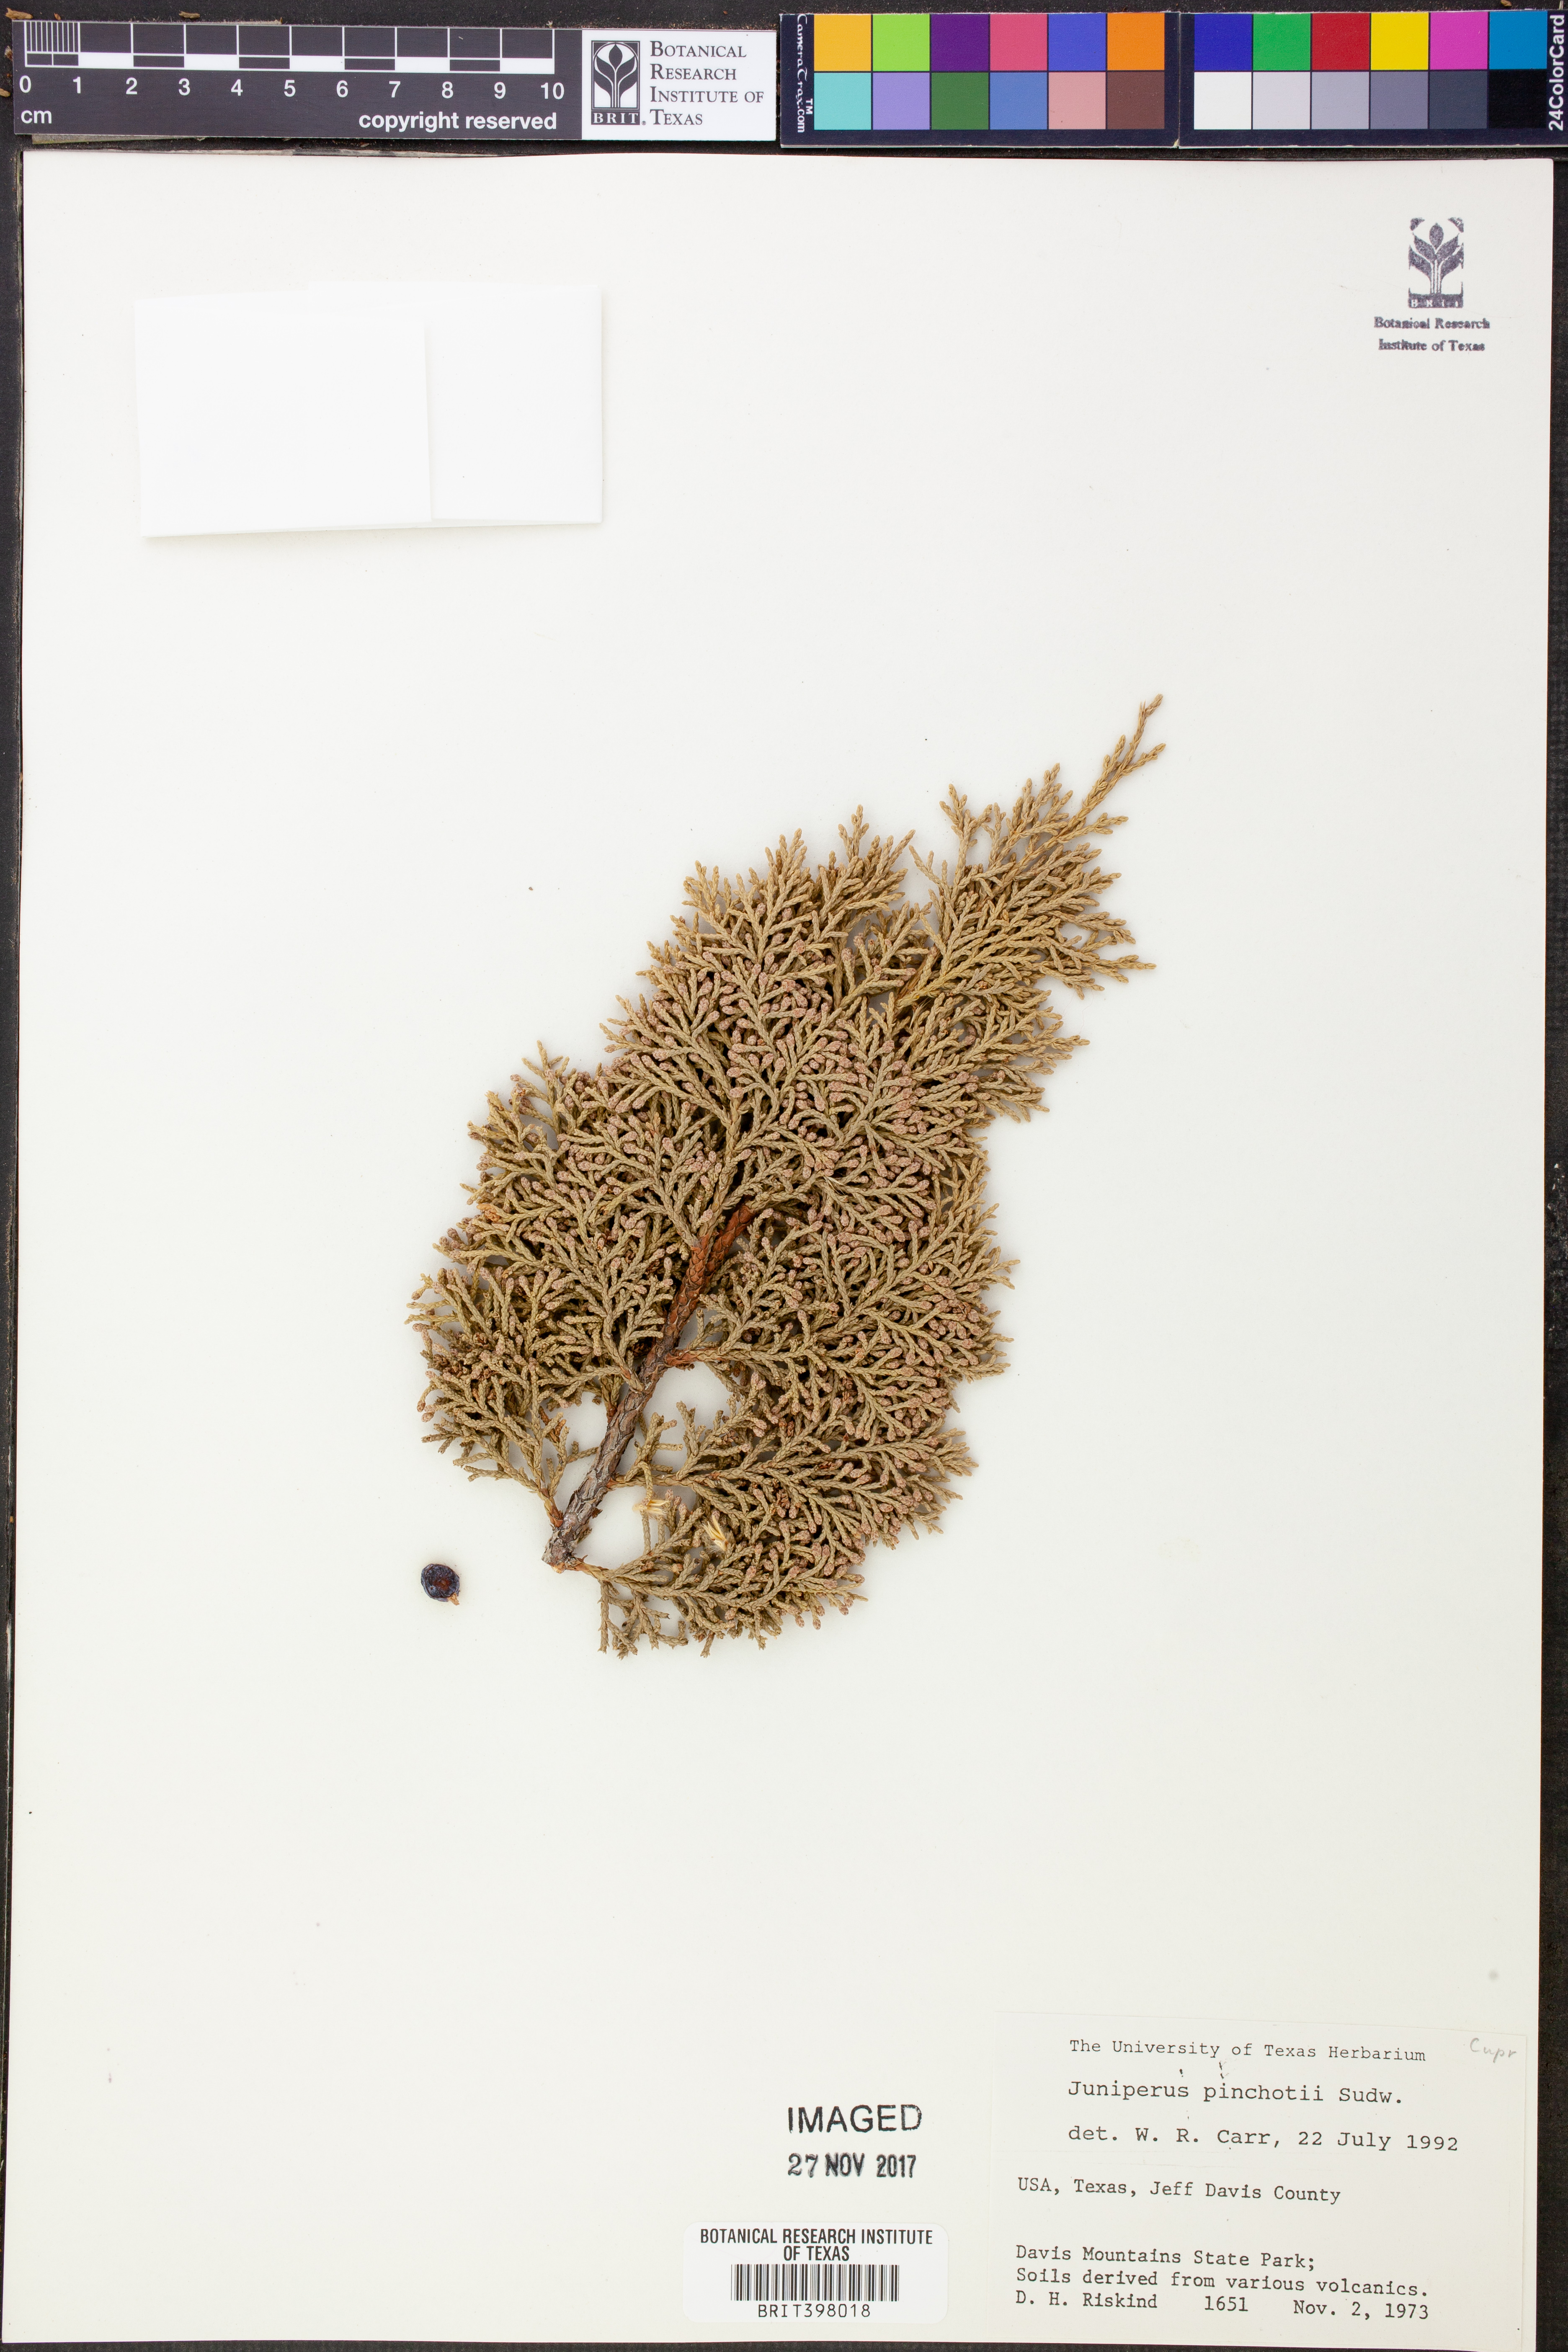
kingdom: Plantae
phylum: Tracheophyta
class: Pinopsida
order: Pinales
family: Cupressaceae
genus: Juniperus
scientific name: Juniperus pinchotii
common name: Pinchot juniper
